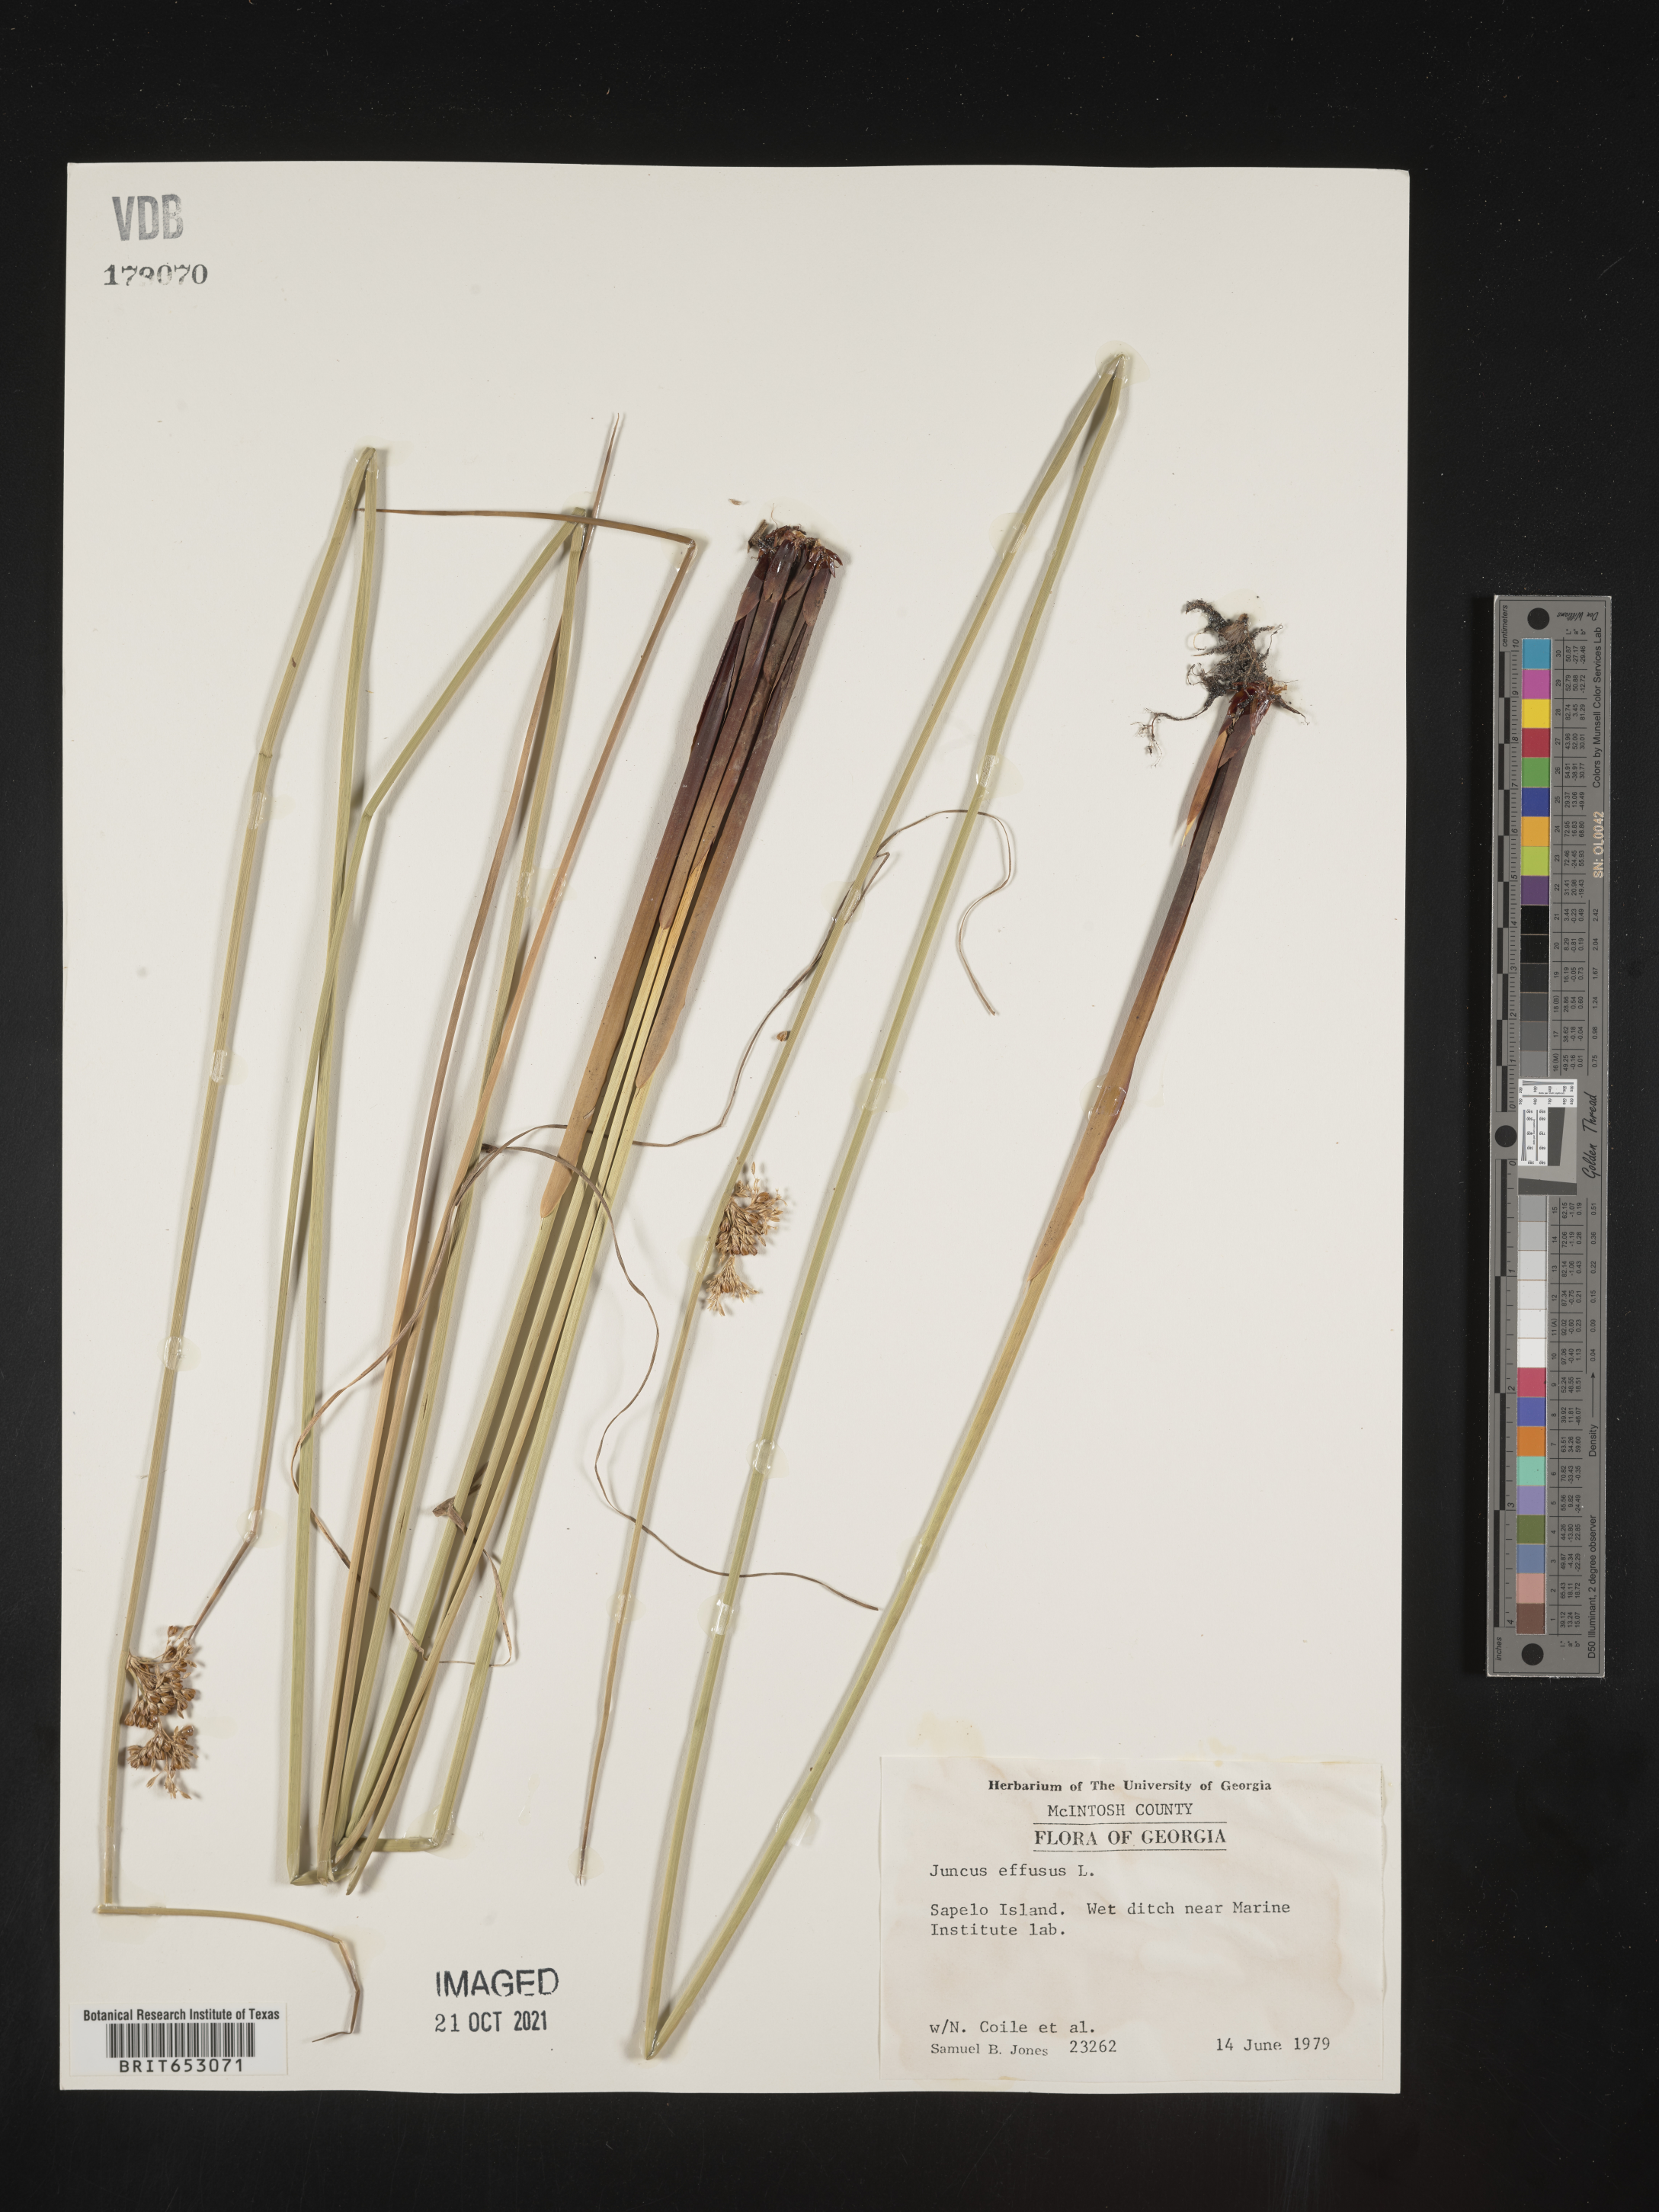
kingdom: Plantae
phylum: Tracheophyta
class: Liliopsida
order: Poales
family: Juncaceae
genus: Juncus
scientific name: Juncus effusus
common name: Soft rush
